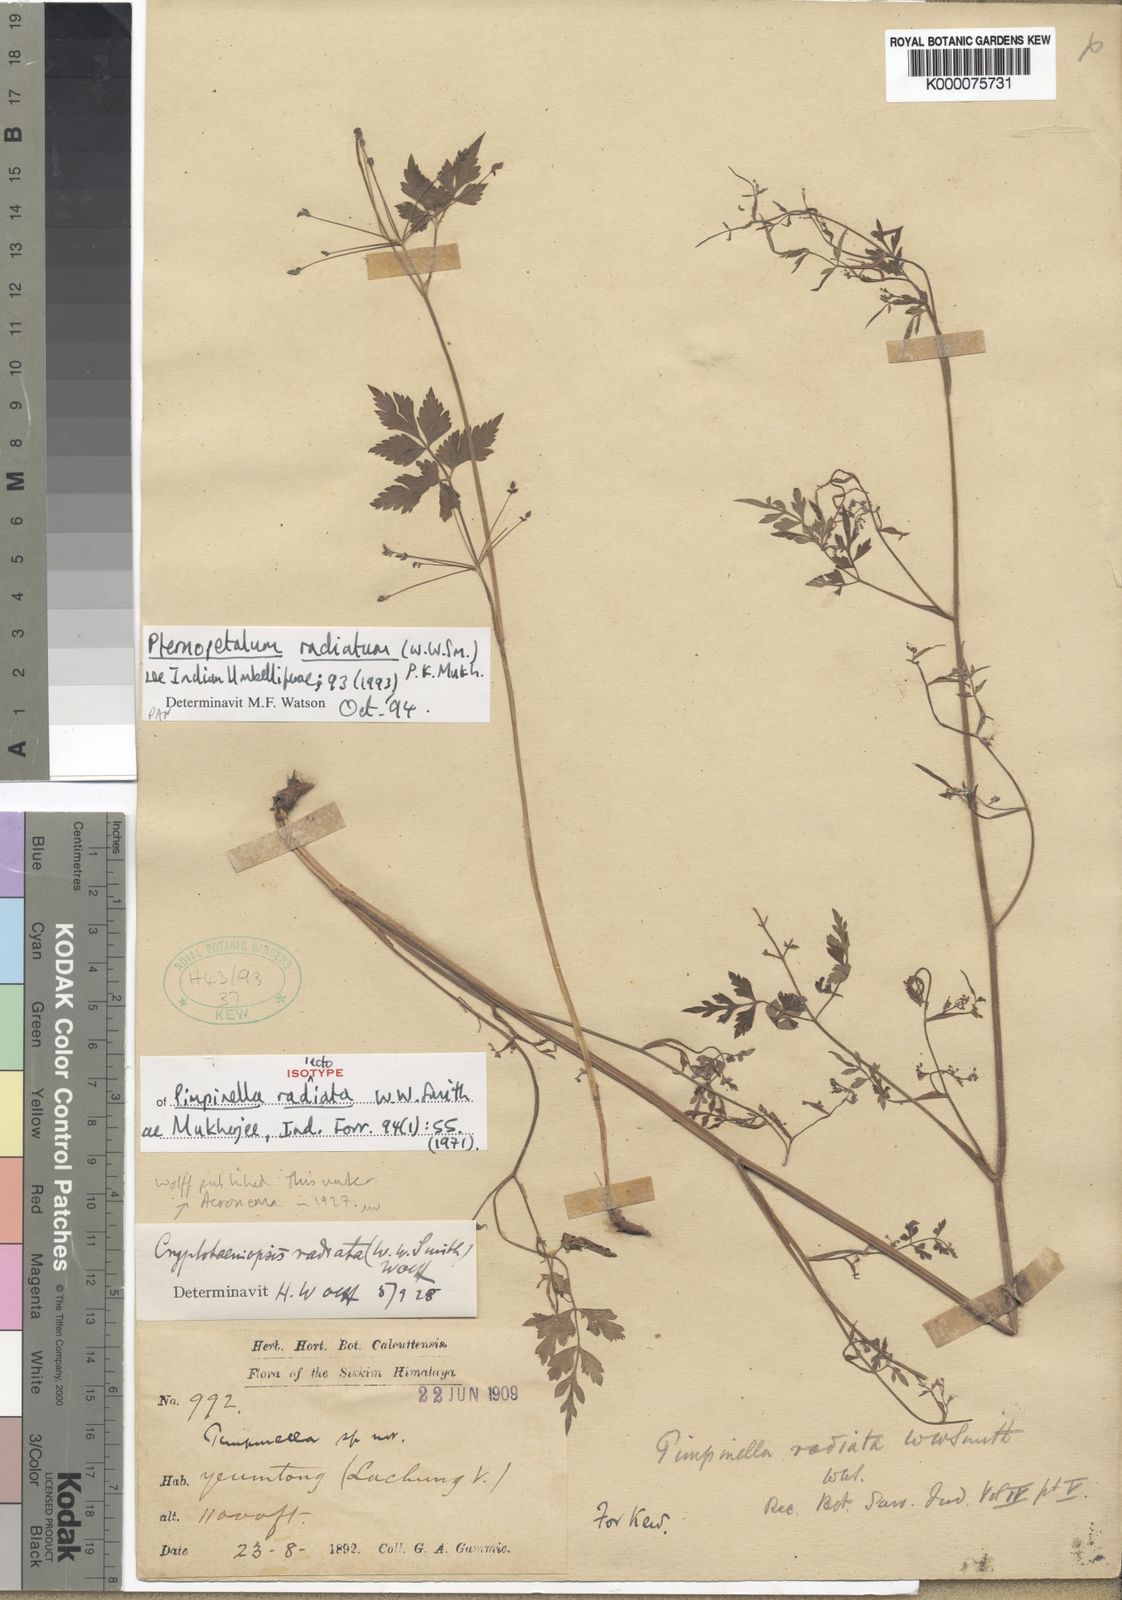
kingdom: Plantae
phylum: Tracheophyta
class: Magnoliopsida
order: Apiales
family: Apiaceae
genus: Pternopetalum
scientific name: Pternopetalum molle
